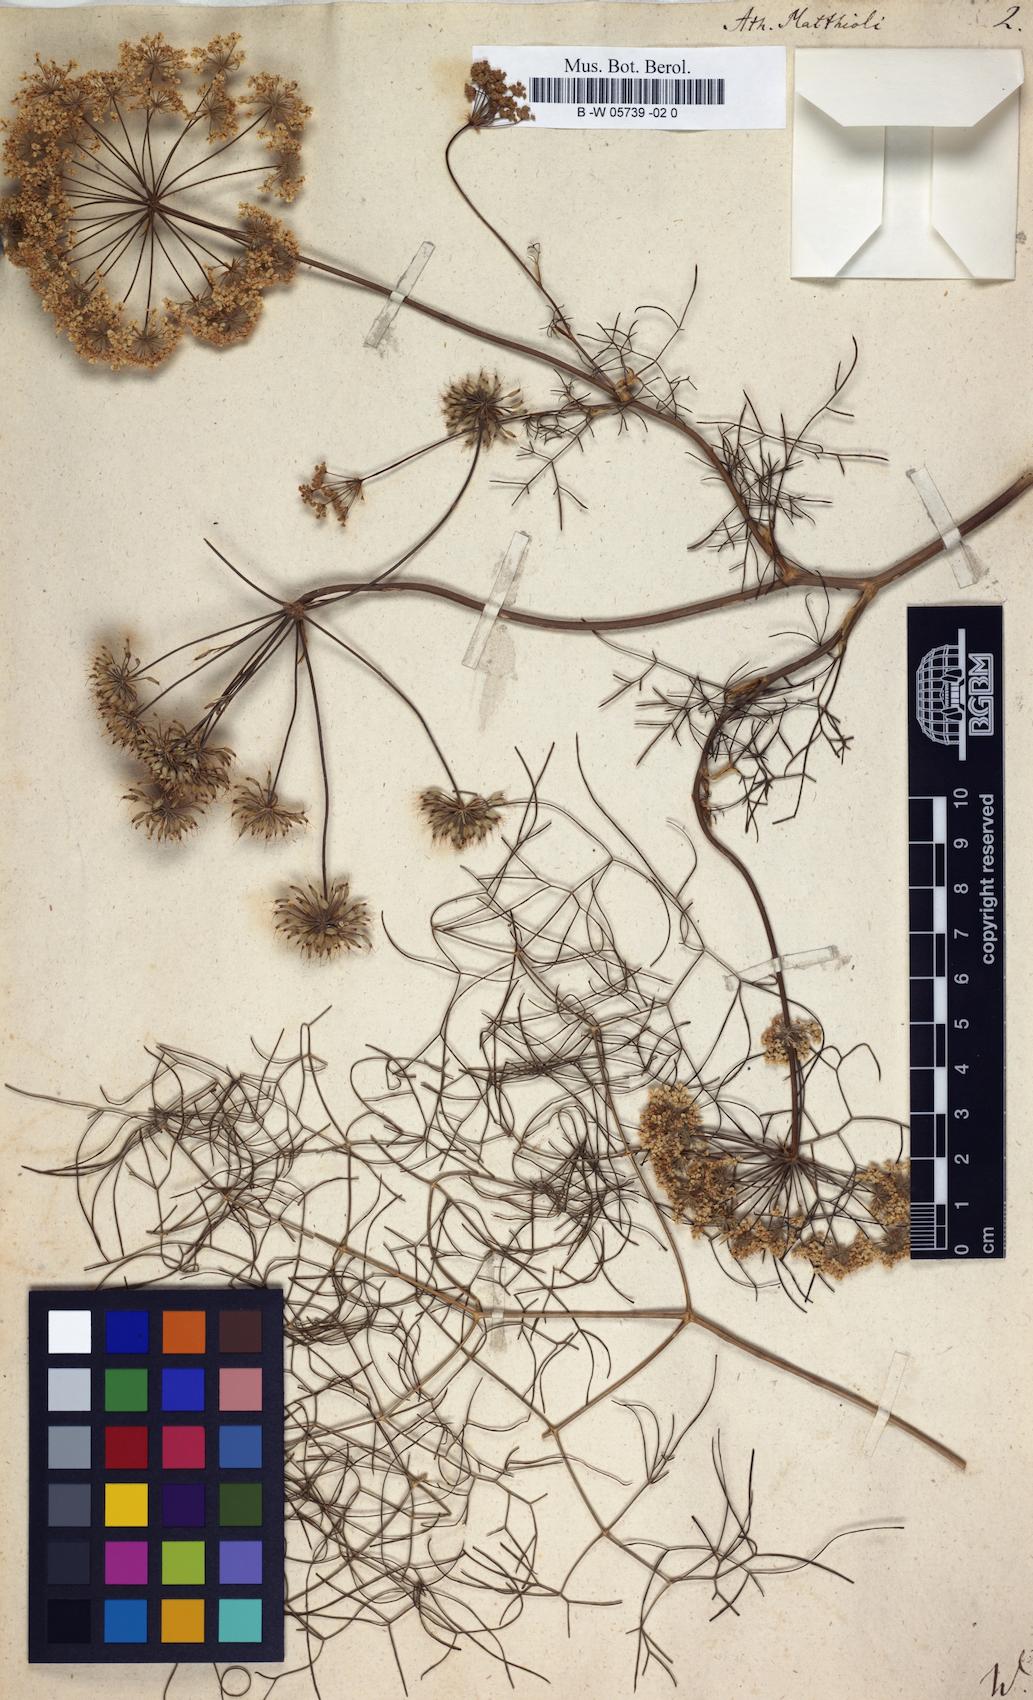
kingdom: Plantae
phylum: Tracheophyta
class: Magnoliopsida
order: Apiales
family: Apiaceae
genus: Athamanta
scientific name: Athamanta
